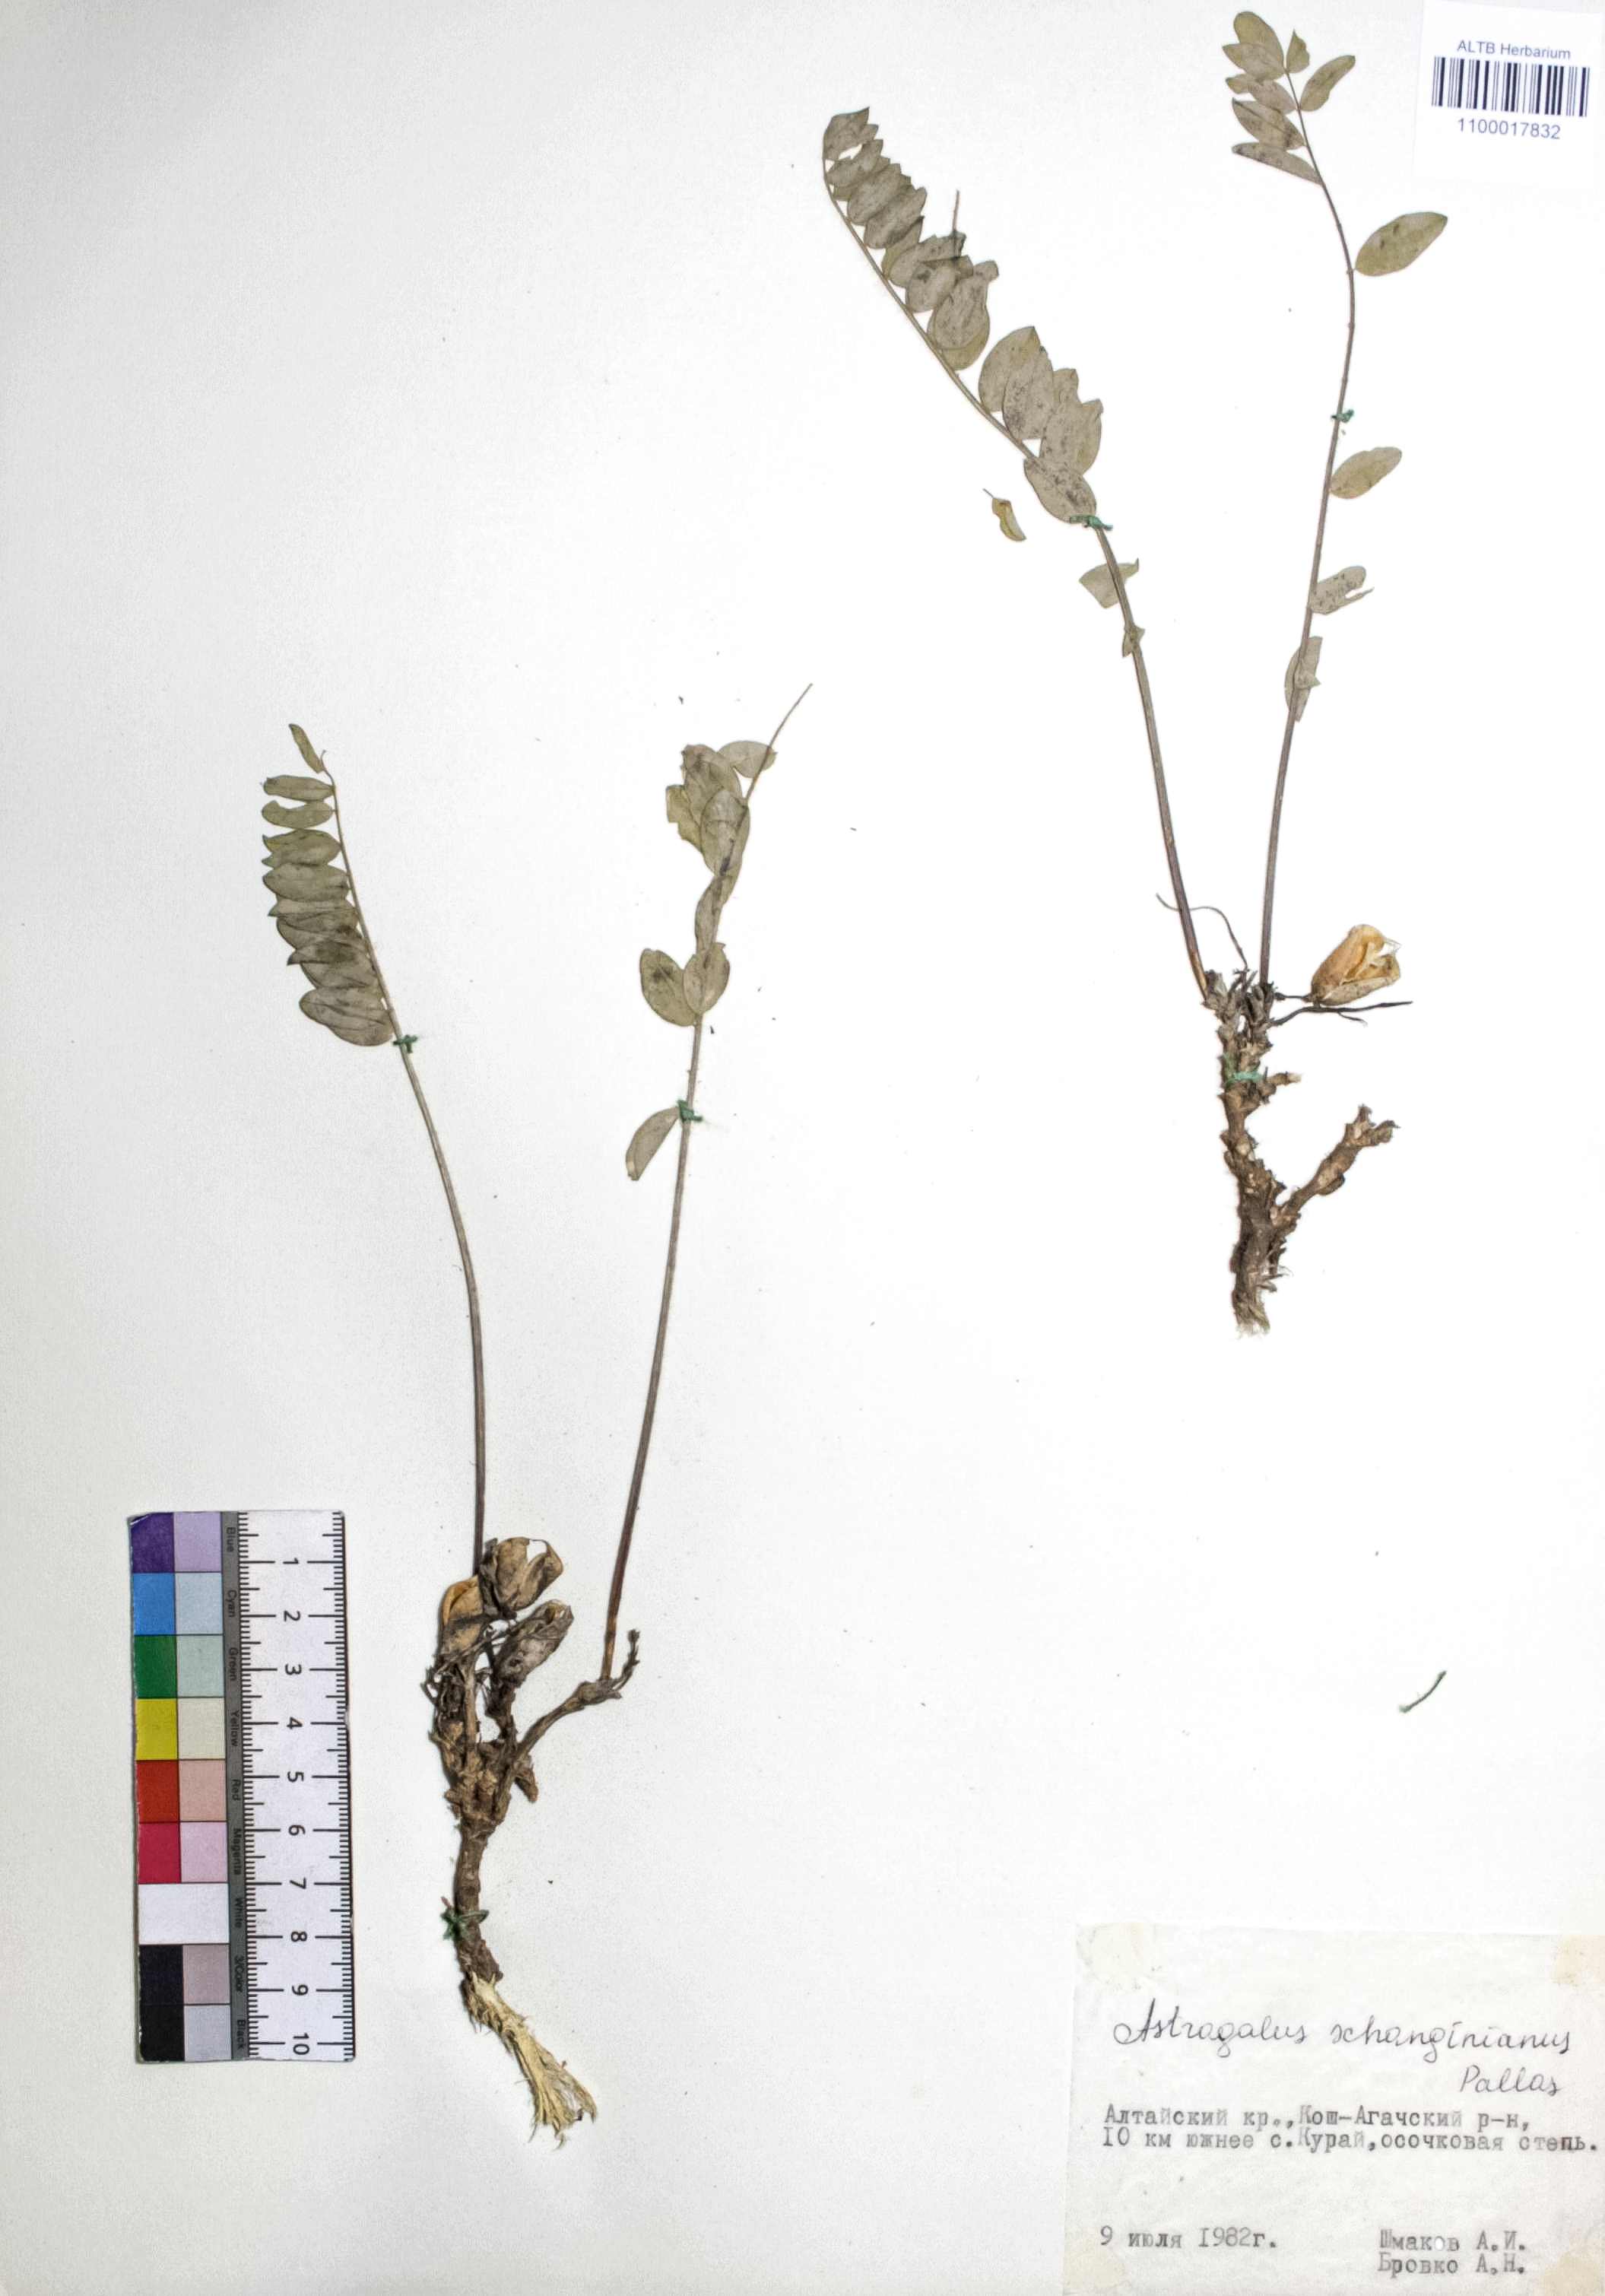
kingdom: Plantae
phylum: Tracheophyta
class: Magnoliopsida
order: Fabales
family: Fabaceae
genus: Astragalus
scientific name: Astragalus schanginianus
